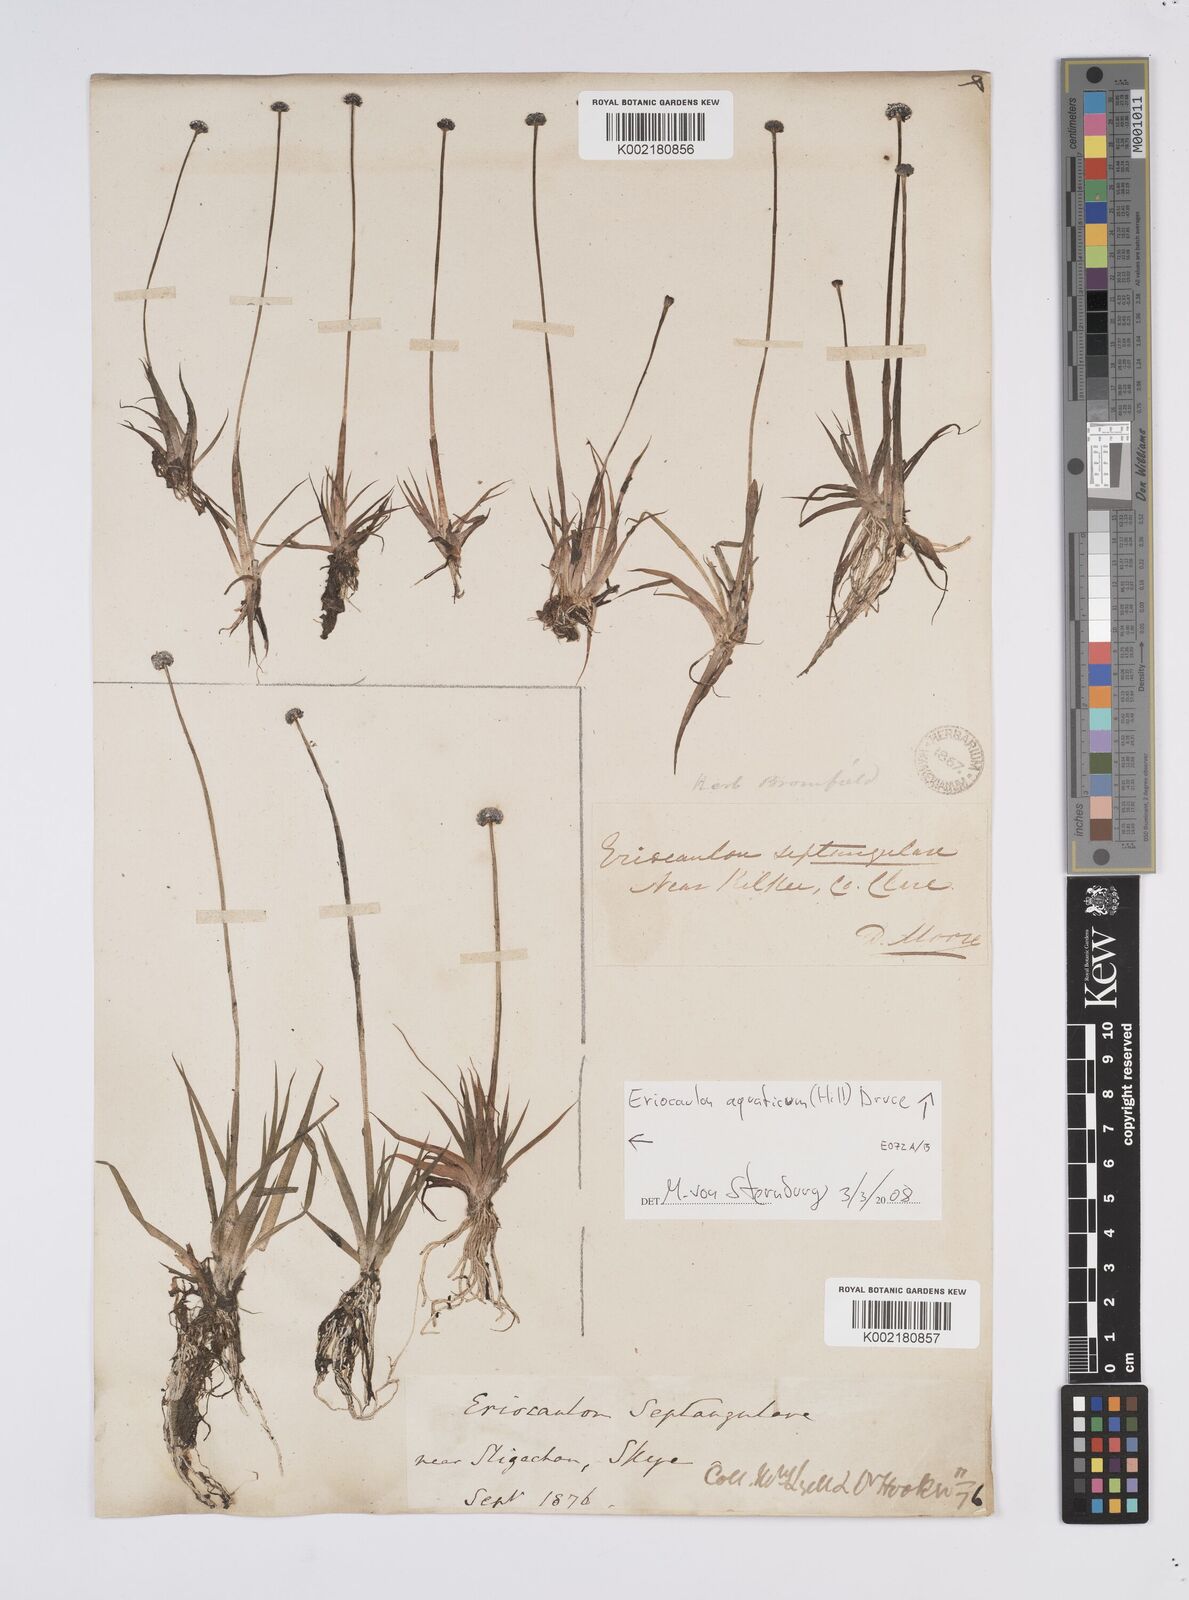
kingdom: Plantae
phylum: Tracheophyta
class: Liliopsida
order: Poales
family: Eriocaulaceae
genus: Eriocaulon
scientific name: Eriocaulon aquaticum
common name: Pipewort
